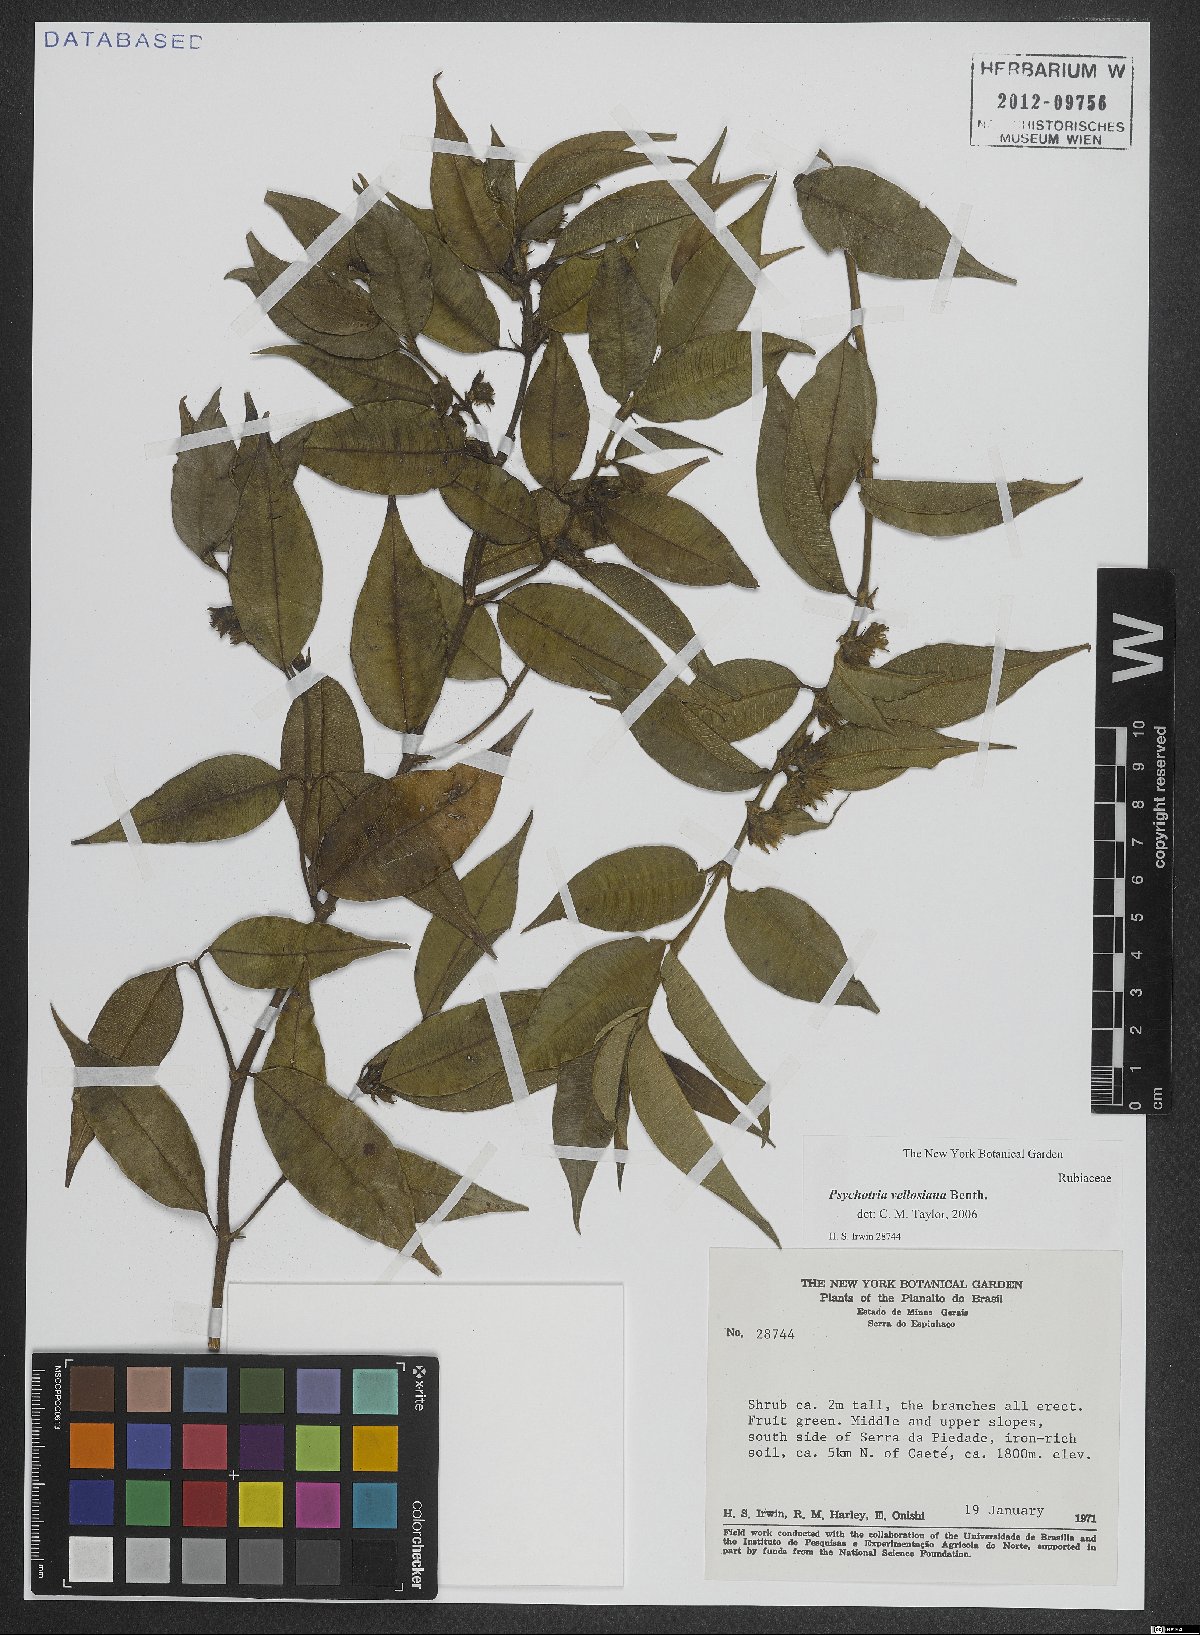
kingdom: Plantae
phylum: Tracheophyta
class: Magnoliopsida
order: Gentianales
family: Rubiaceae
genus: Palicourea
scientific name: Palicourea sessilis
